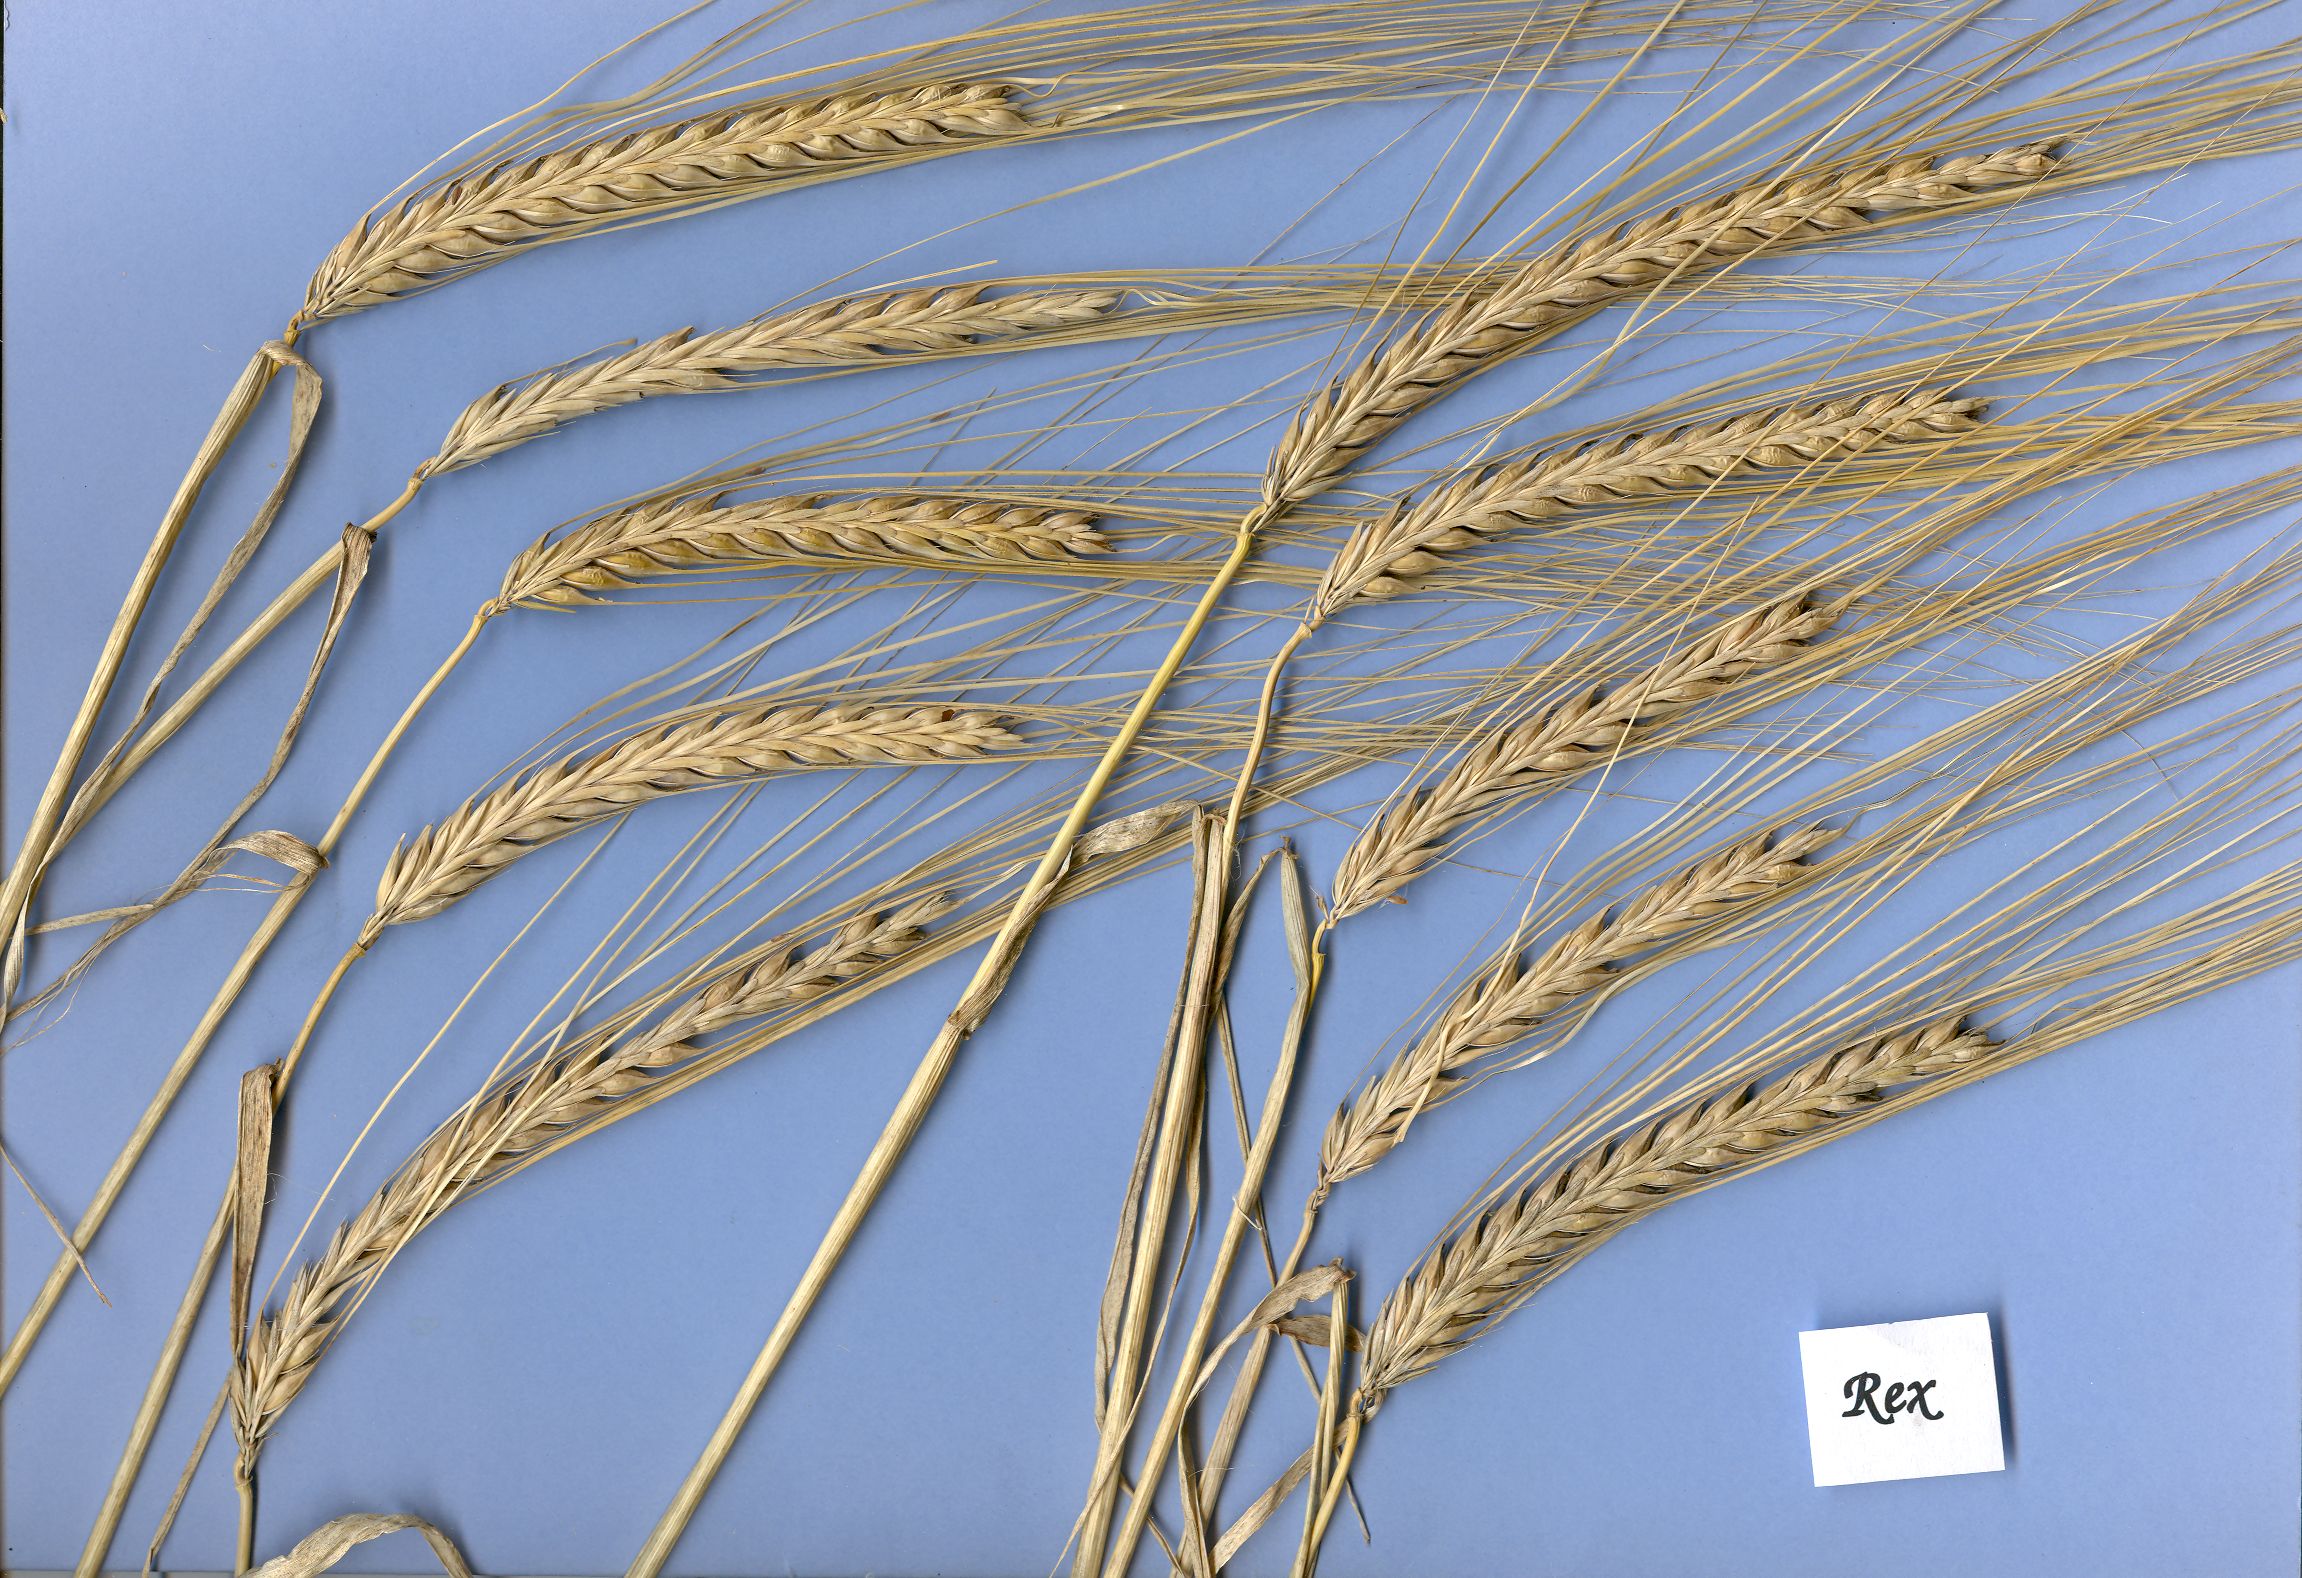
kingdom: Plantae
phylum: Tracheophyta
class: Liliopsida
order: Poales
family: Poaceae
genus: Hordeum
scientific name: Hordeum vulgare
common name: Common barley
